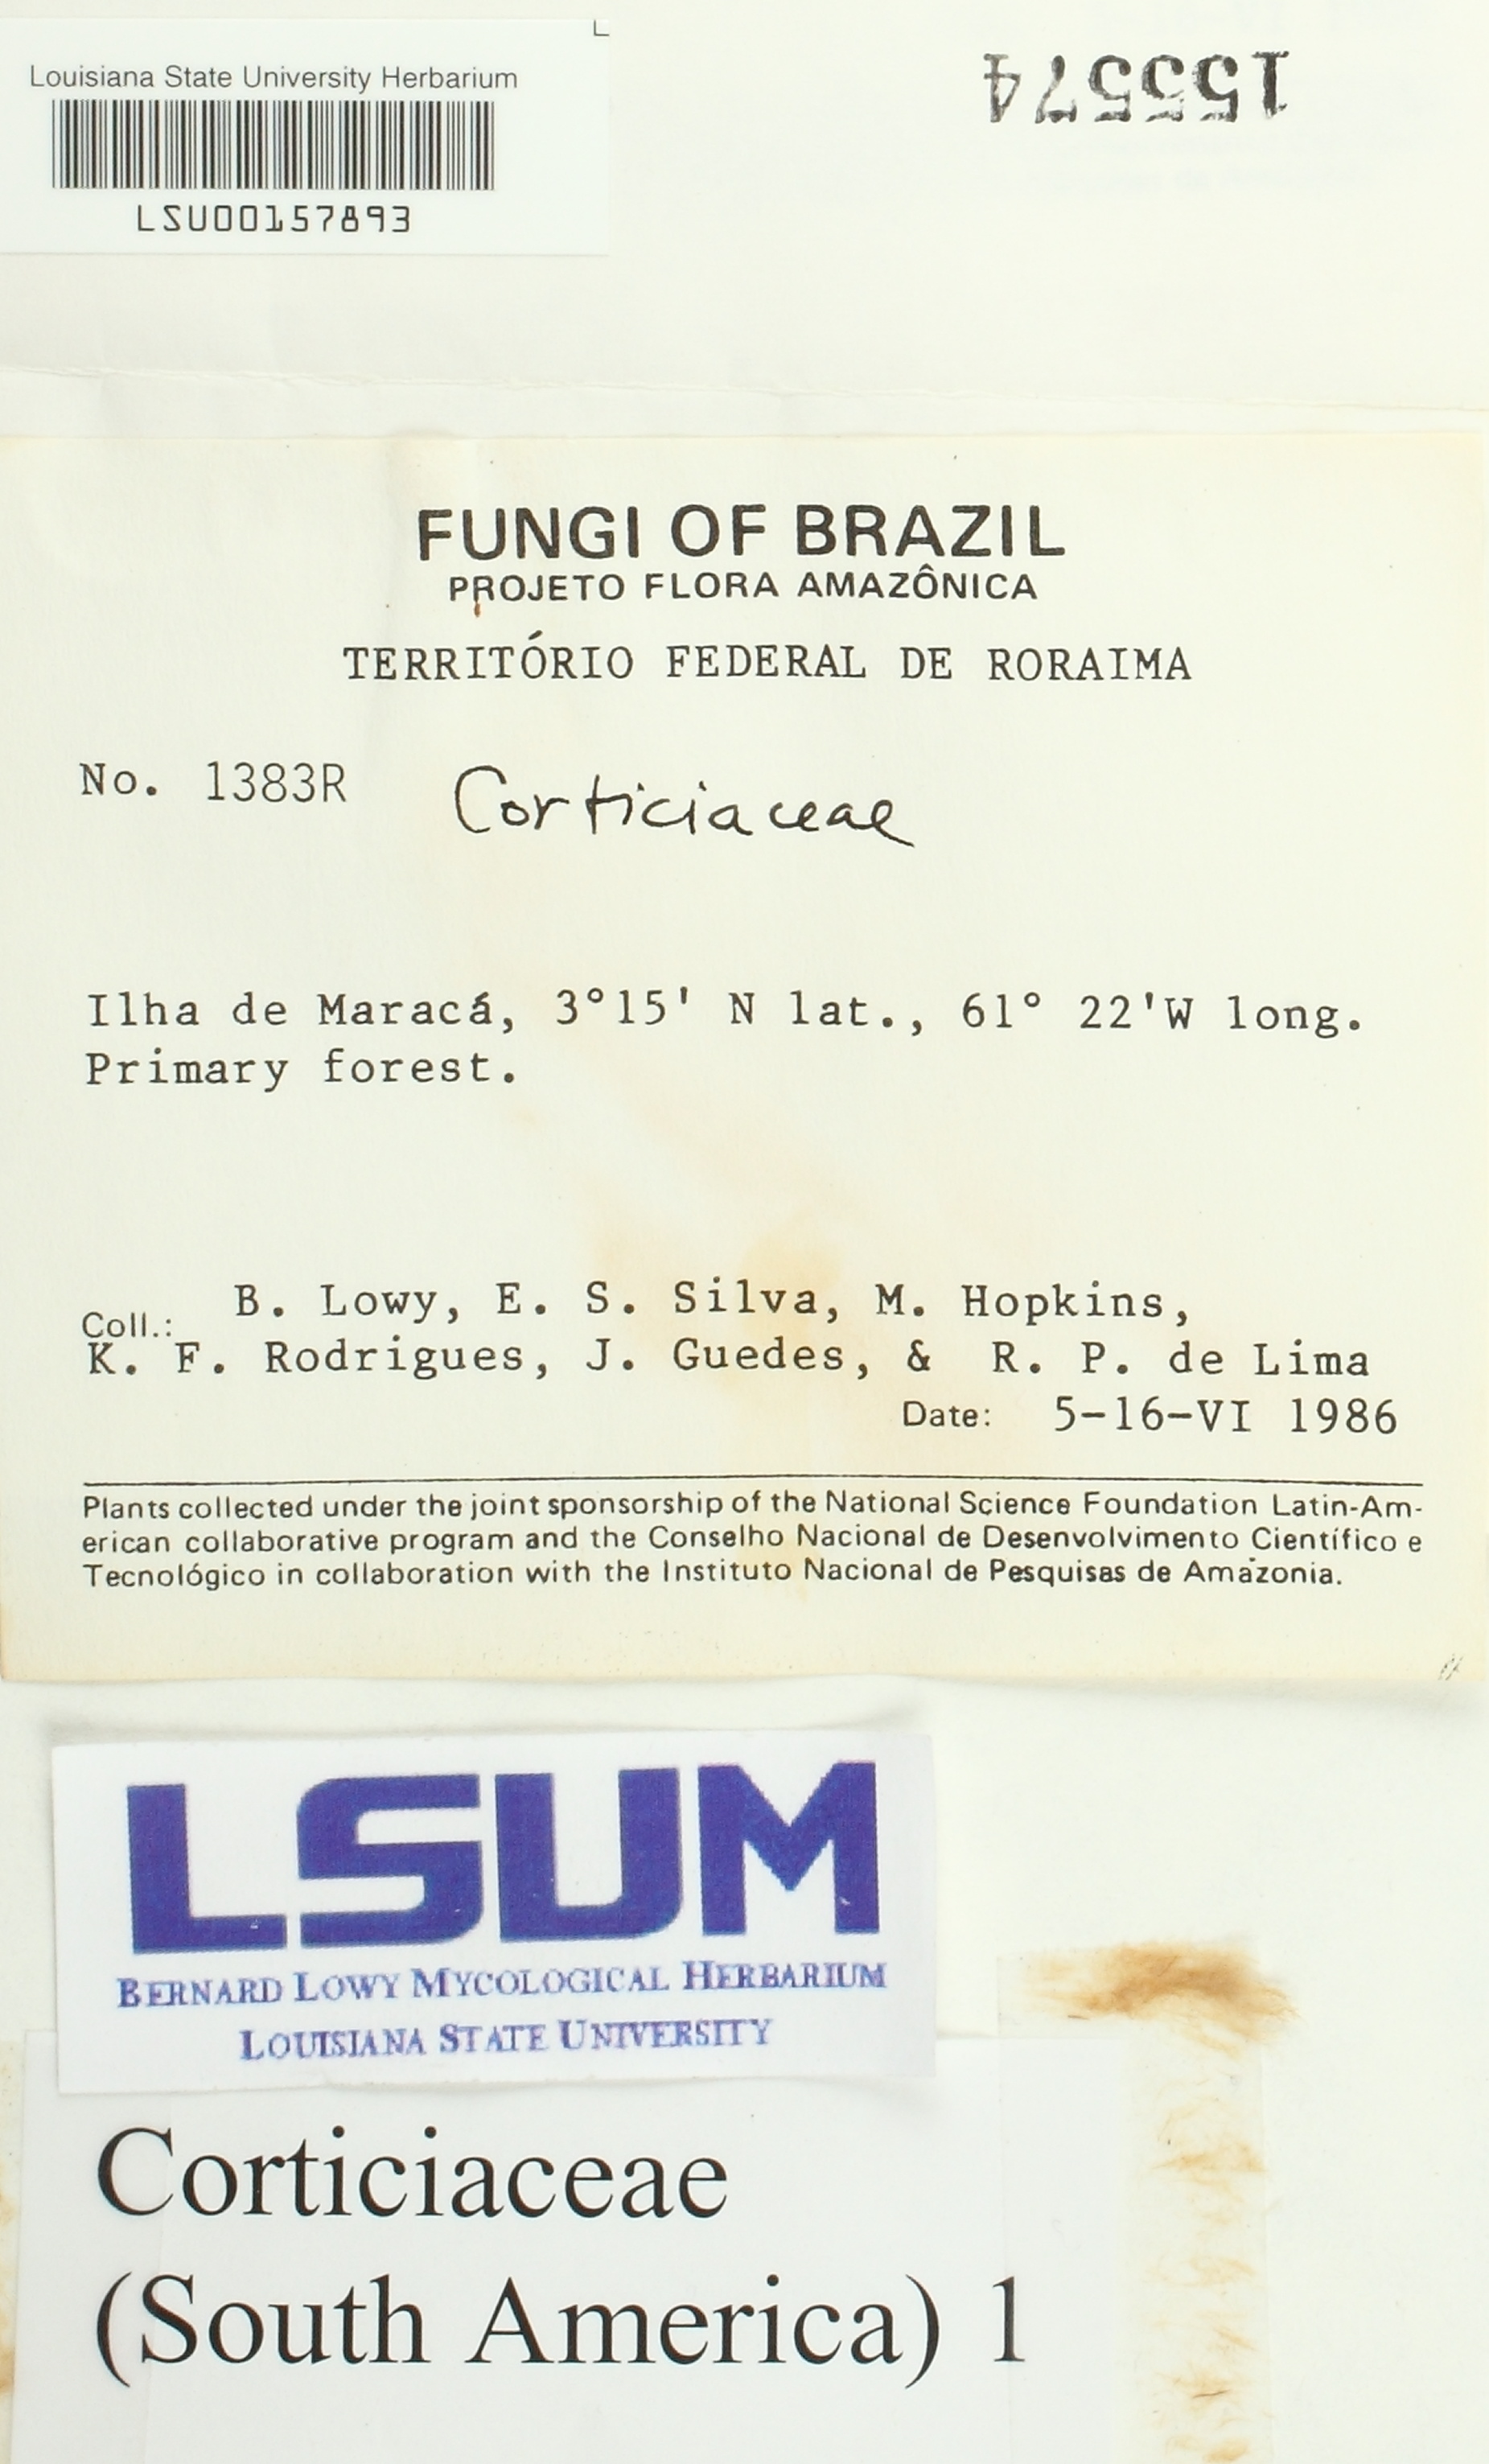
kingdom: Fungi
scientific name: Fungi
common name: Fungi
